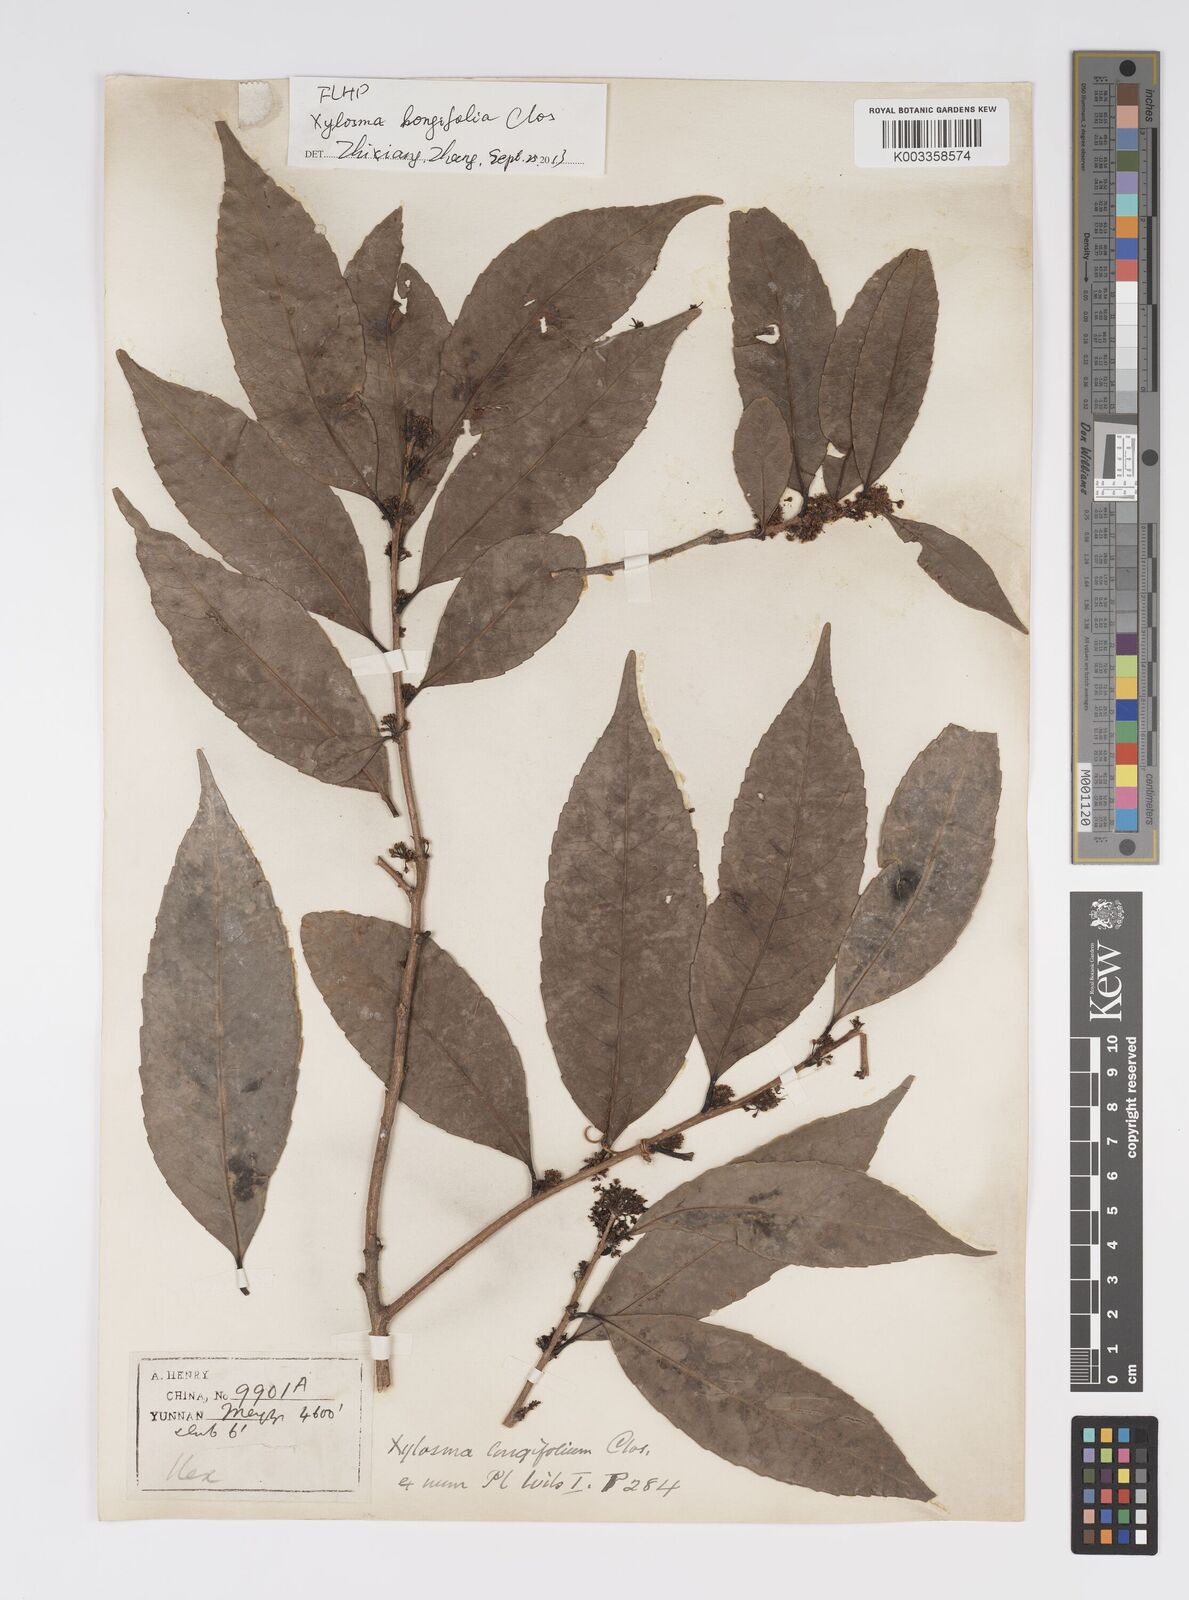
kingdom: Plantae
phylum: Tracheophyta
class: Magnoliopsida
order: Malpighiales
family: Salicaceae
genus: Xylosma
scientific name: Xylosma longifolia
